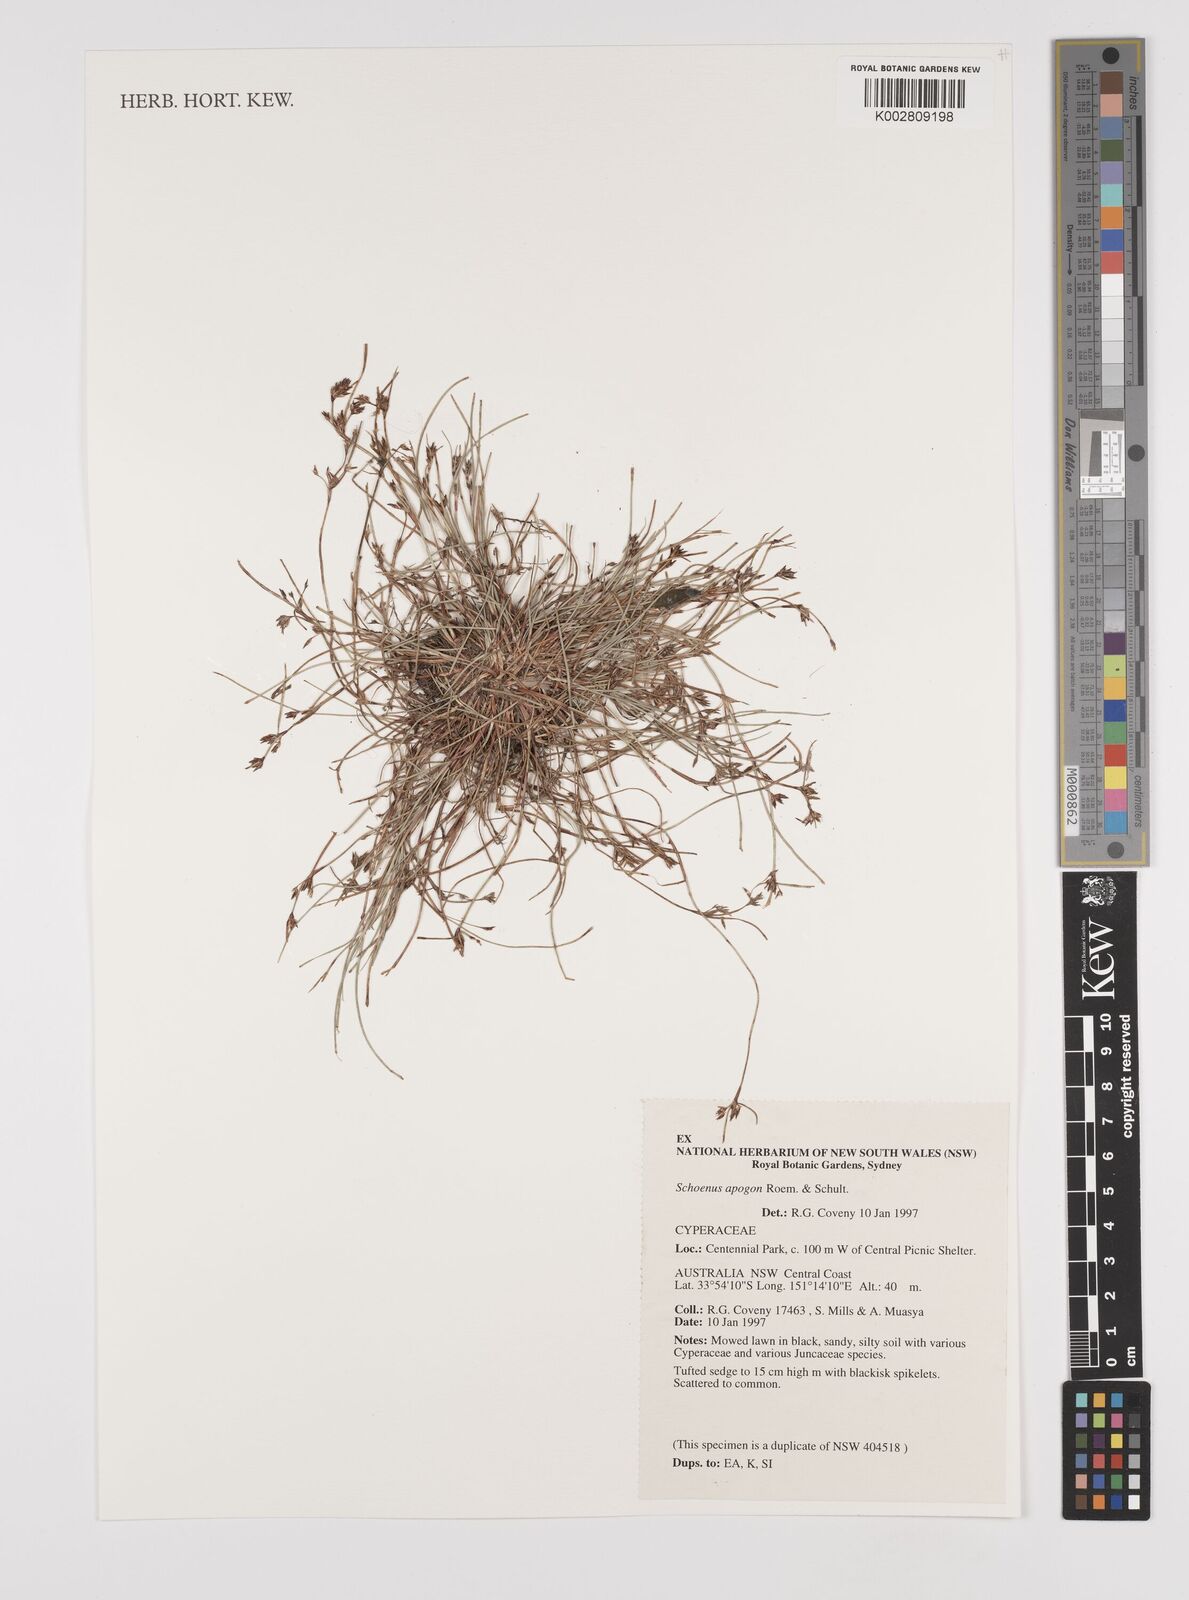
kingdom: Plantae
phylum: Tracheophyta
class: Liliopsida
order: Poales
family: Cyperaceae
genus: Schoenus
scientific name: Schoenus apogon
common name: Smooth bogrush
